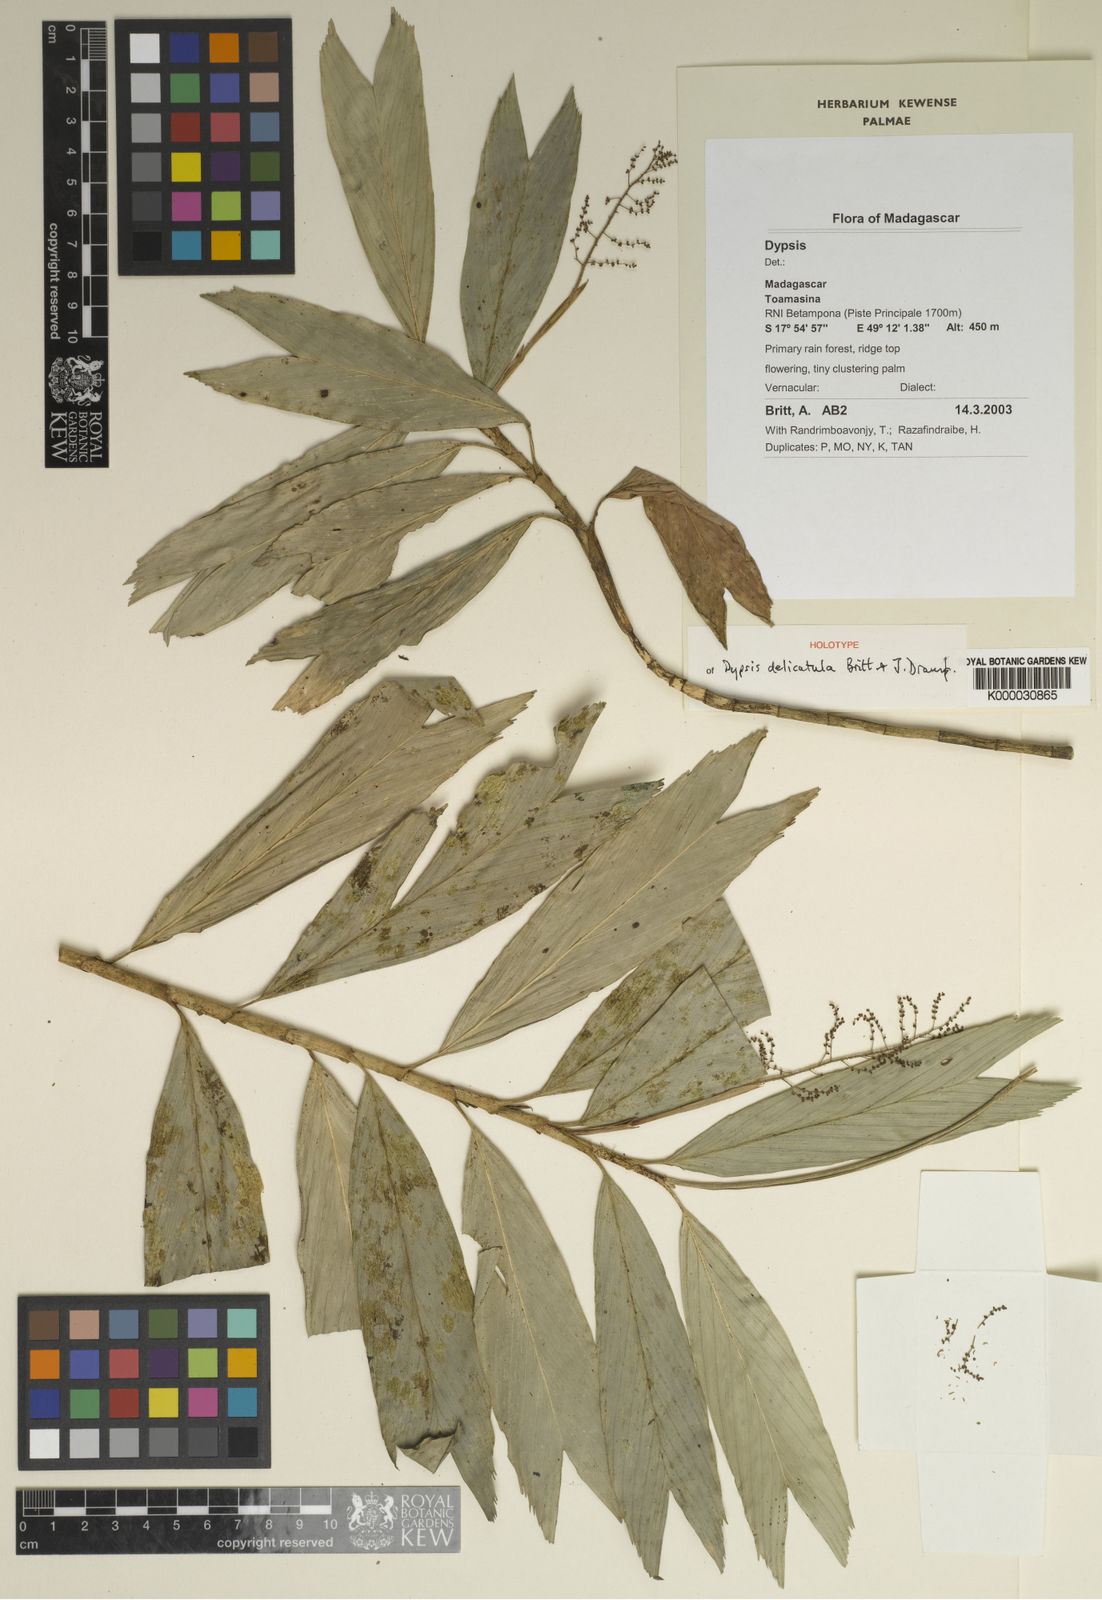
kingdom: Plantae
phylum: Tracheophyta
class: Liliopsida
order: Arecales
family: Arecaceae
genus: Dypsis
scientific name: Dypsis delicatula
